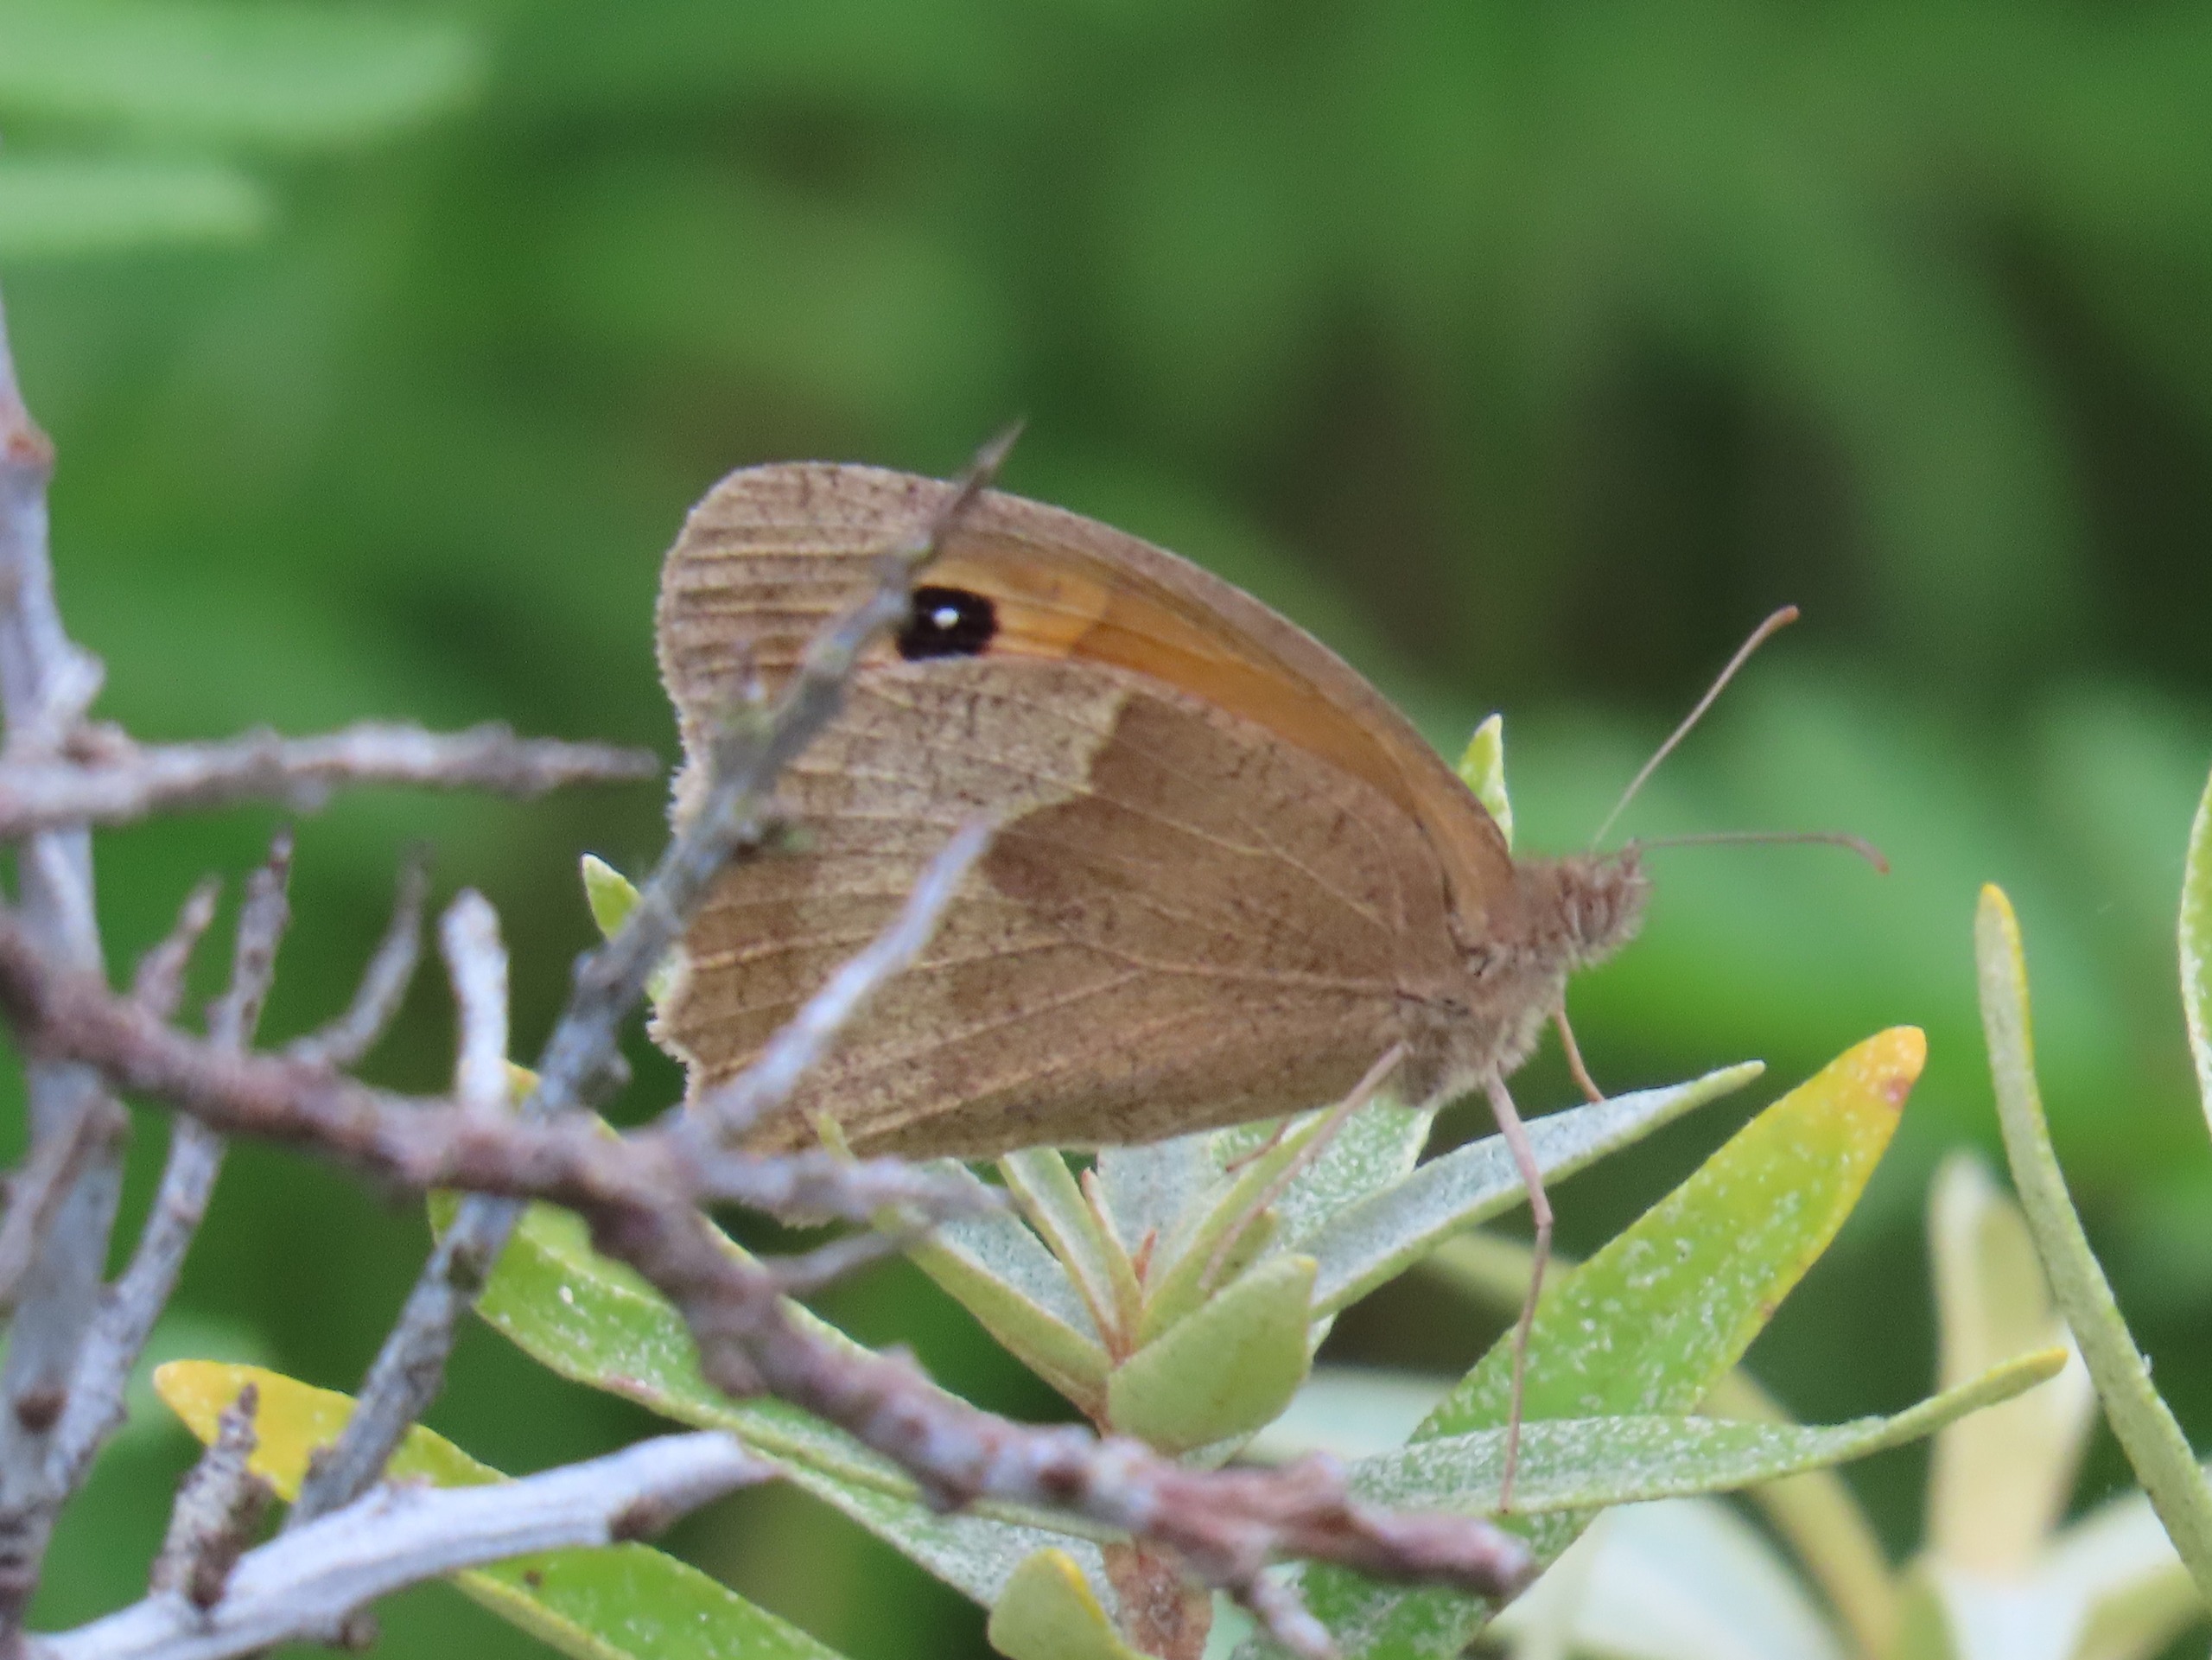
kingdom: Animalia
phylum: Arthropoda
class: Insecta
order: Lepidoptera
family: Nymphalidae
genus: Maniola
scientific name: Maniola jurtina
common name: Græsrandøje
